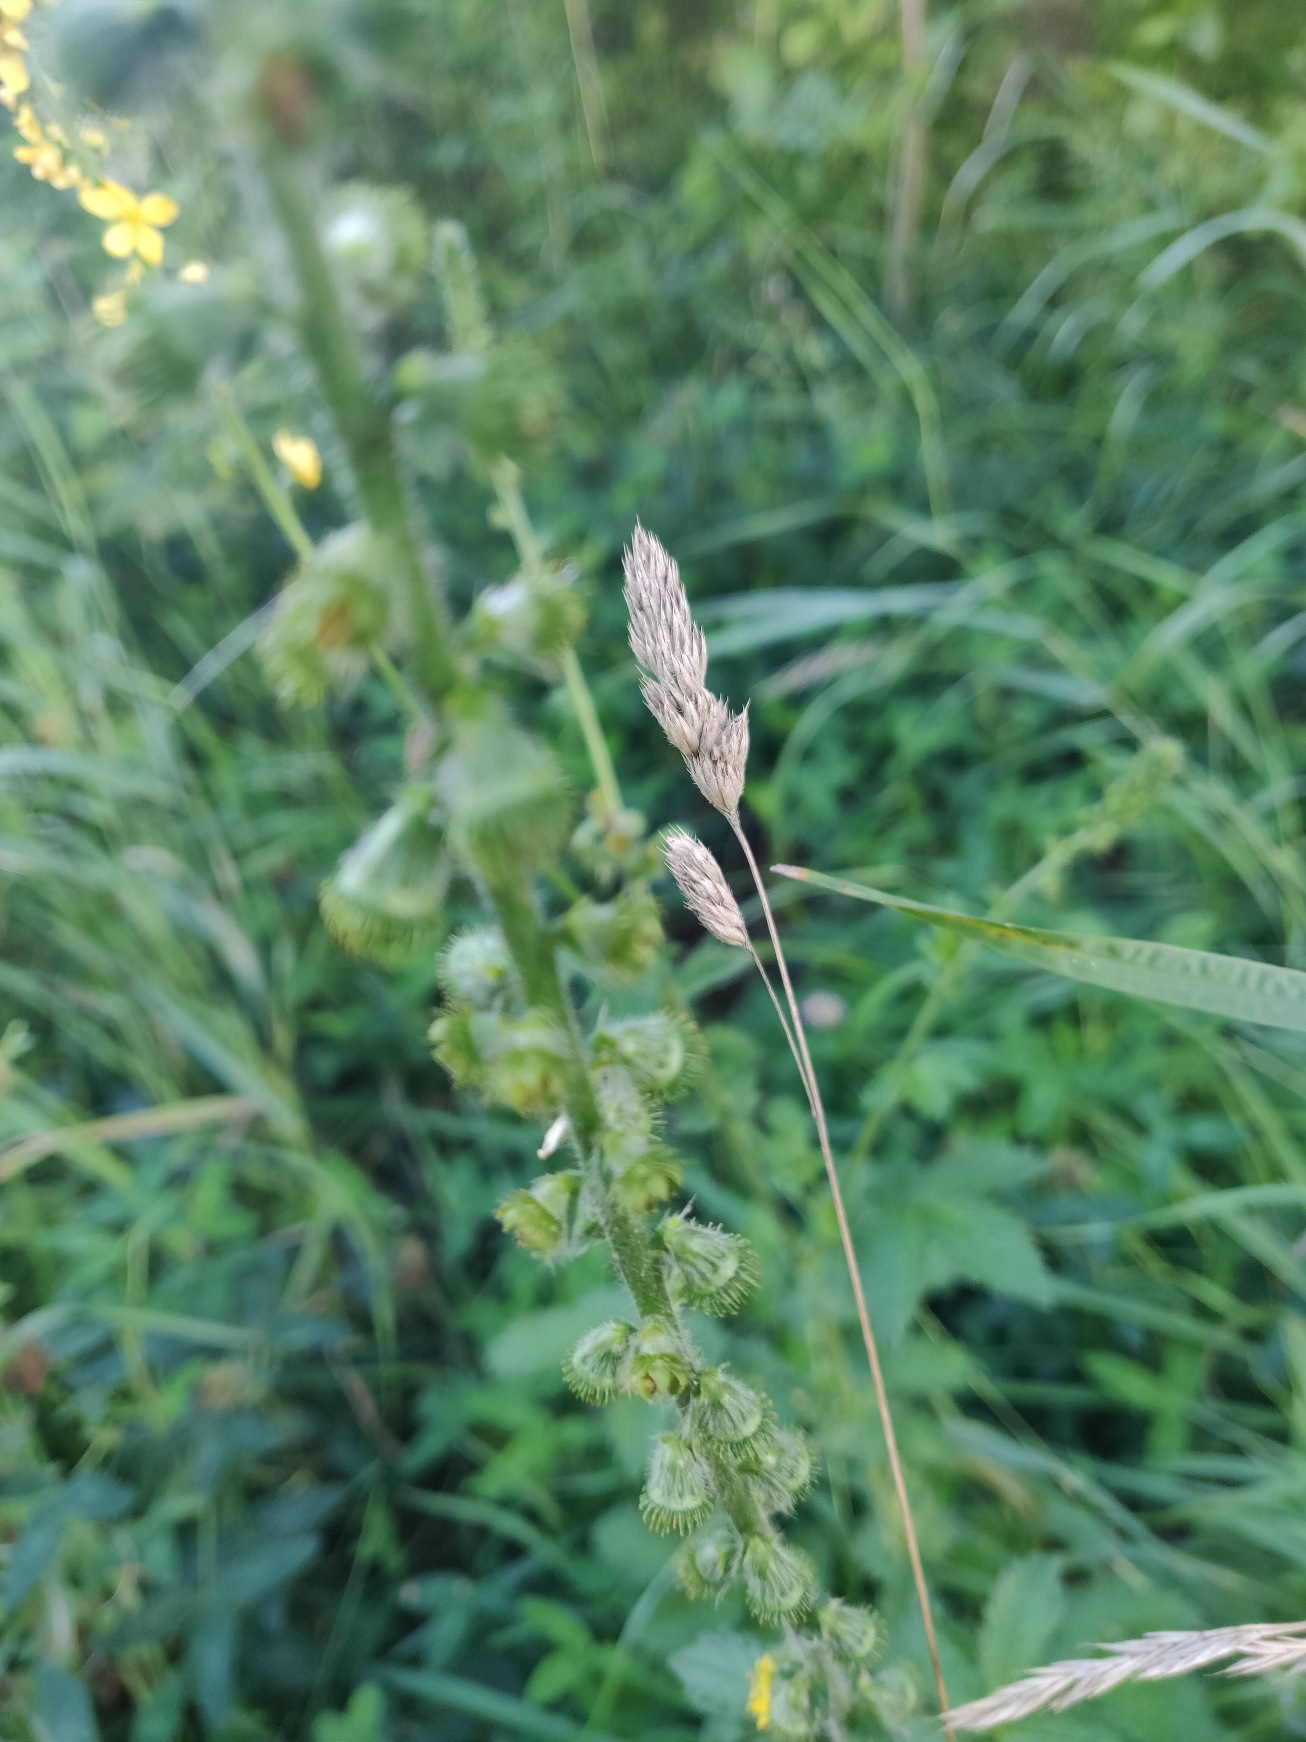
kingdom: Plantae
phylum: Tracheophyta
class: Magnoliopsida
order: Rosales
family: Rosaceae
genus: Agrimonia
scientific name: Agrimonia eupatoria
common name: Almindelig agermåne
